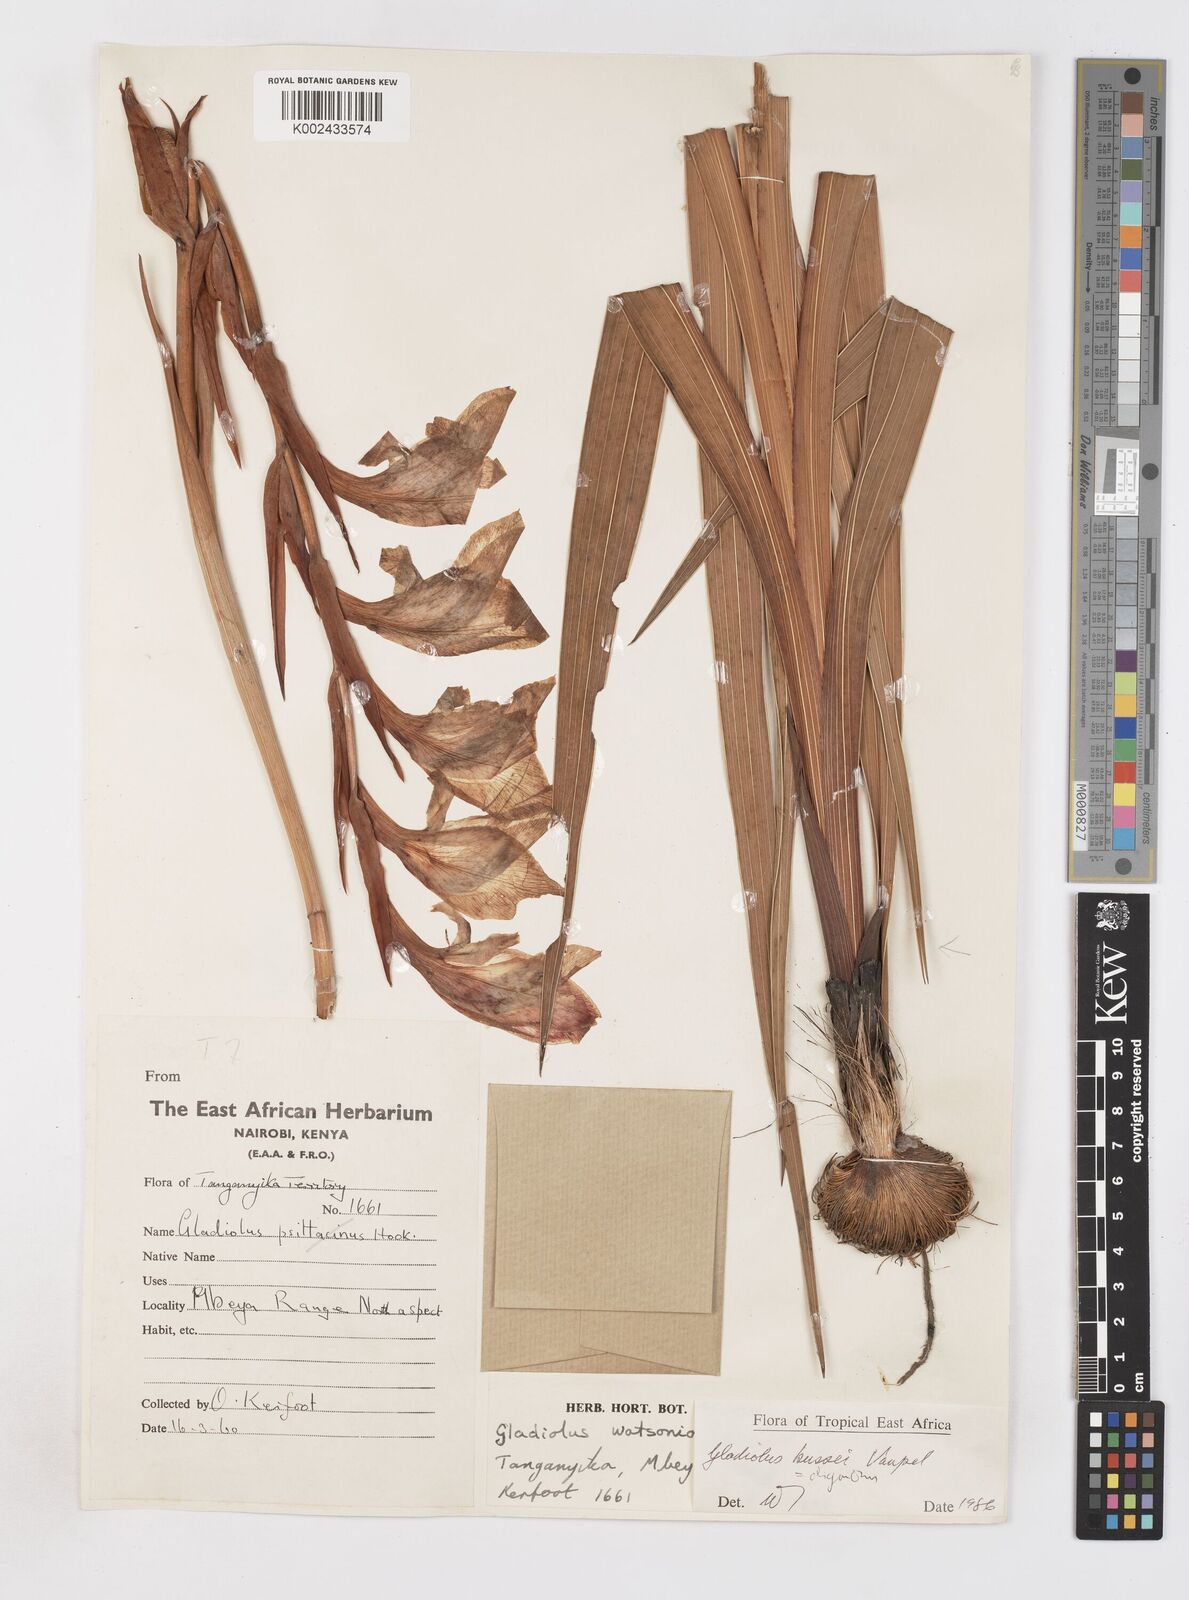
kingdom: Plantae
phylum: Tracheophyta
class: Liliopsida
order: Asparagales
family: Iridaceae
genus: Gladiolus
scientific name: Gladiolus oliganthus
